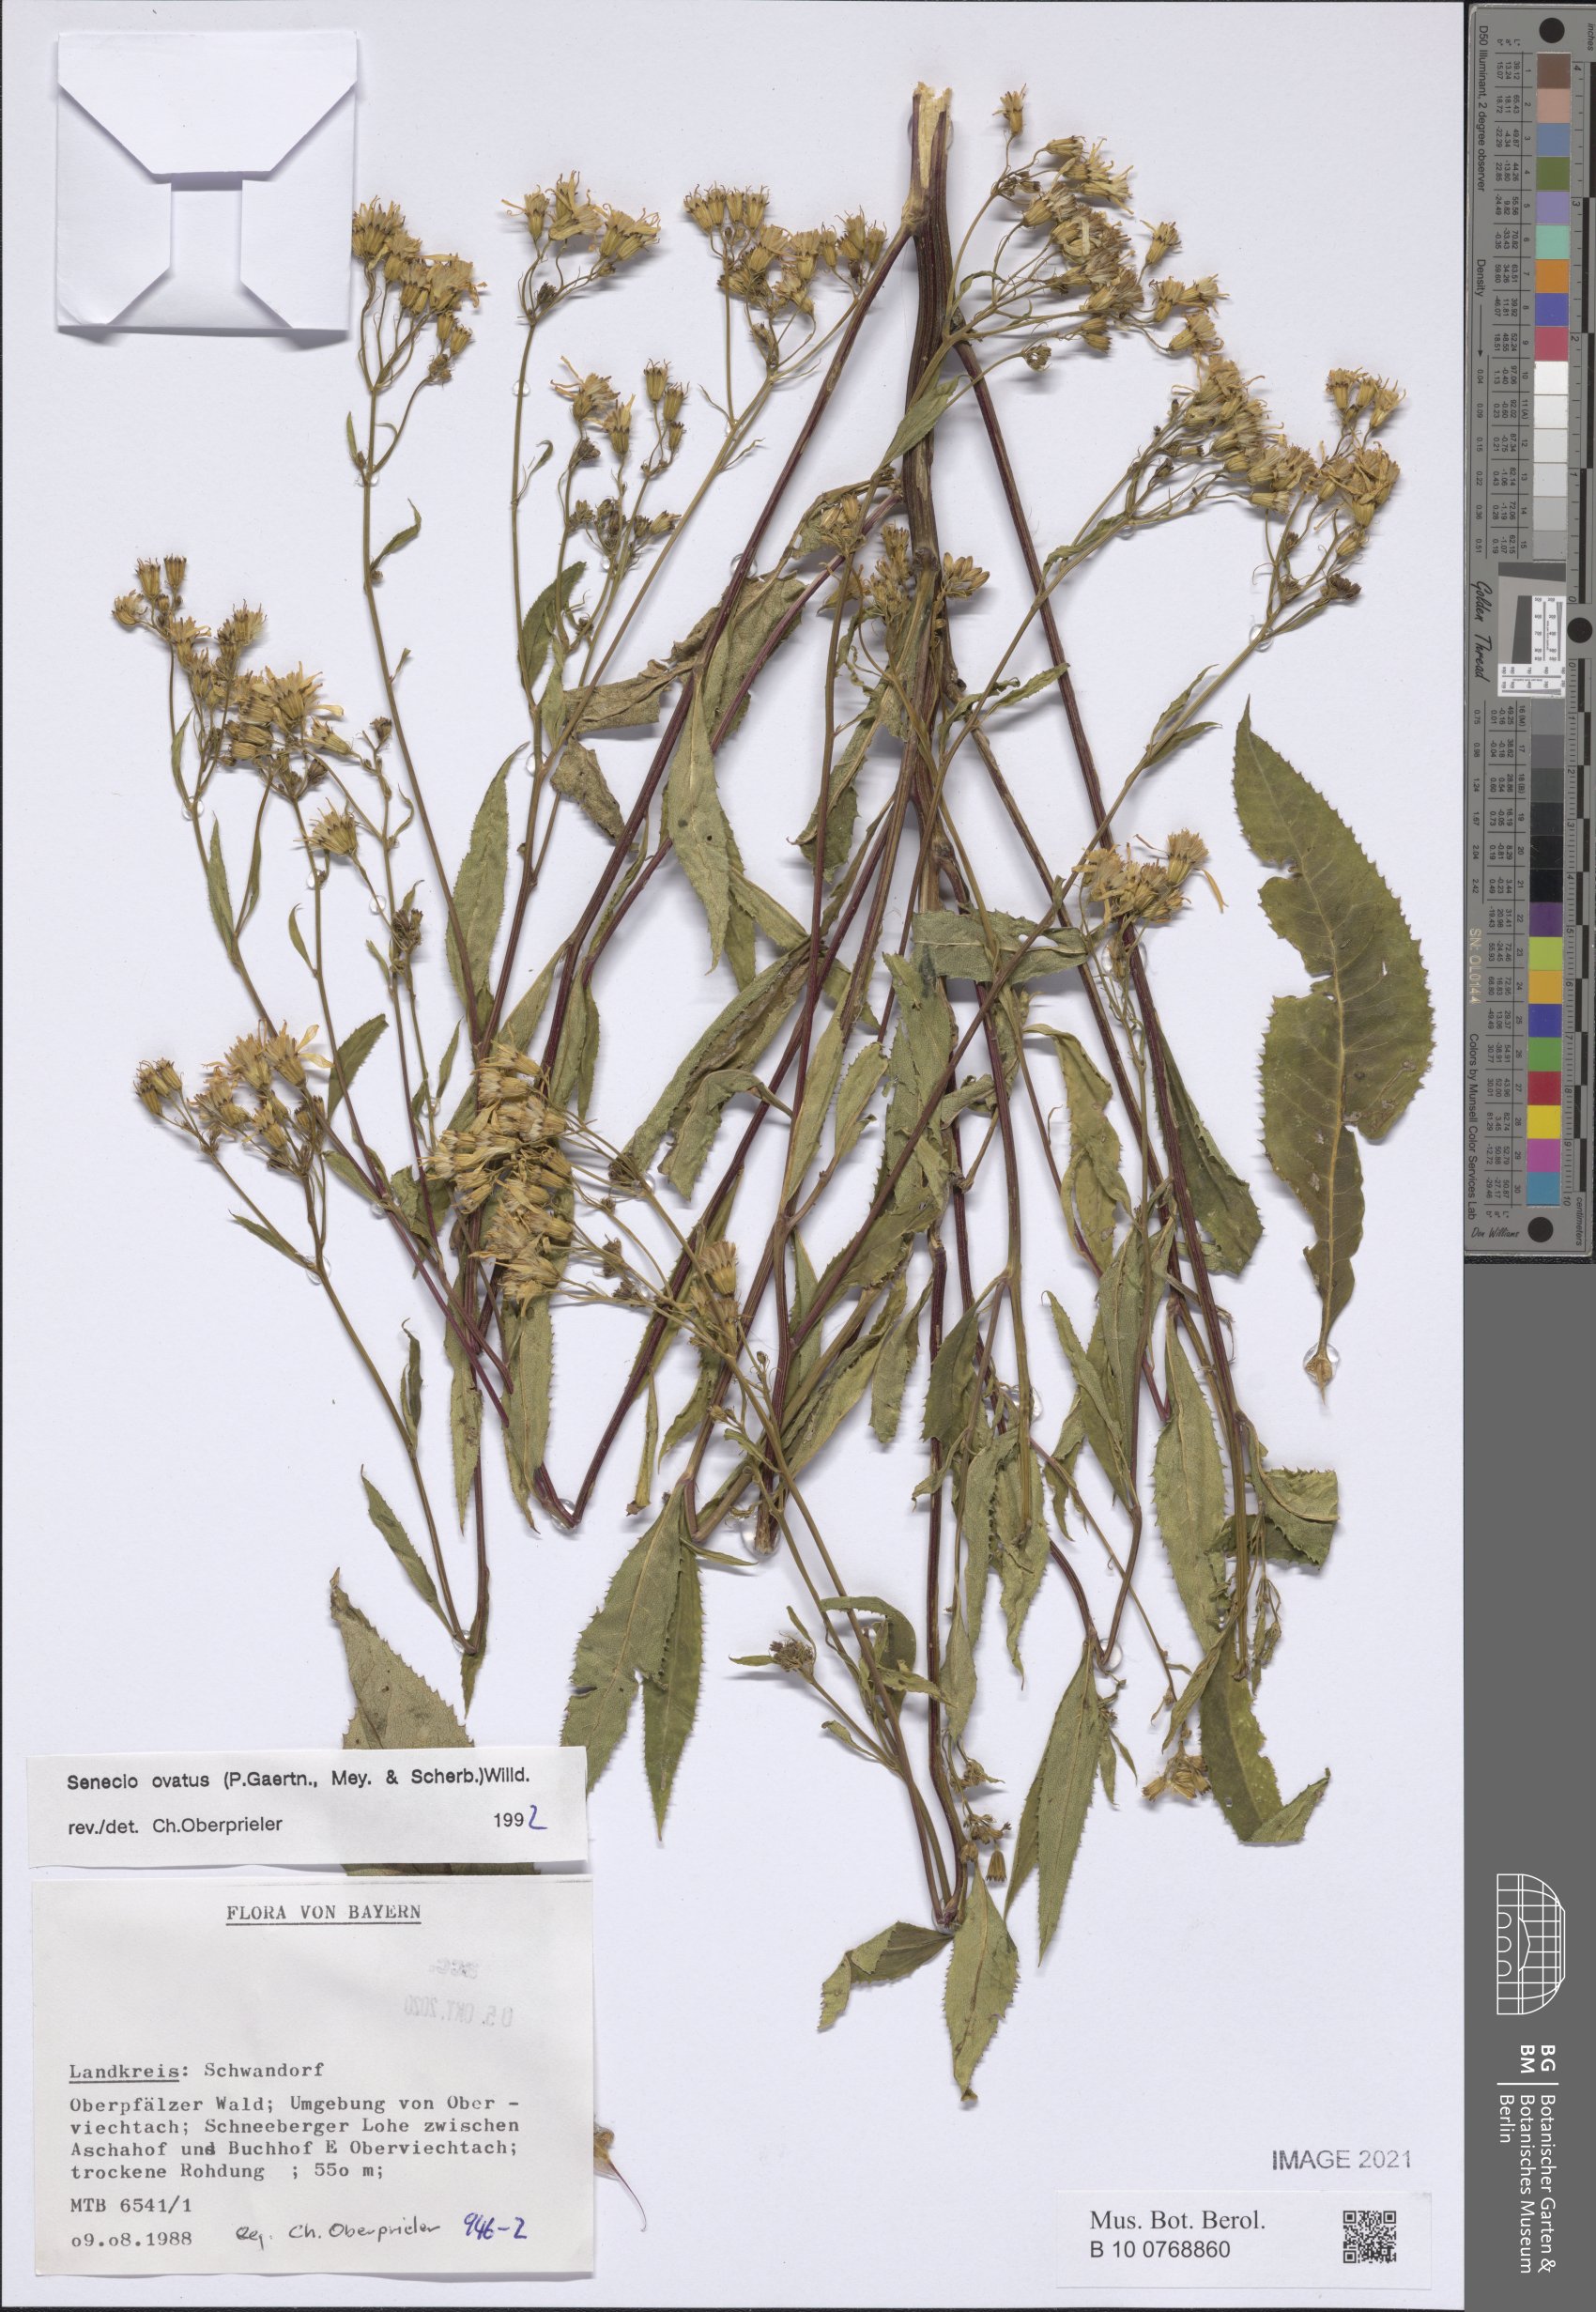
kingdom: Plantae
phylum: Tracheophyta
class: Magnoliopsida
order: Asterales
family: Asteraceae
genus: Senecio
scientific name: Senecio ovatus
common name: Wood ragwort
